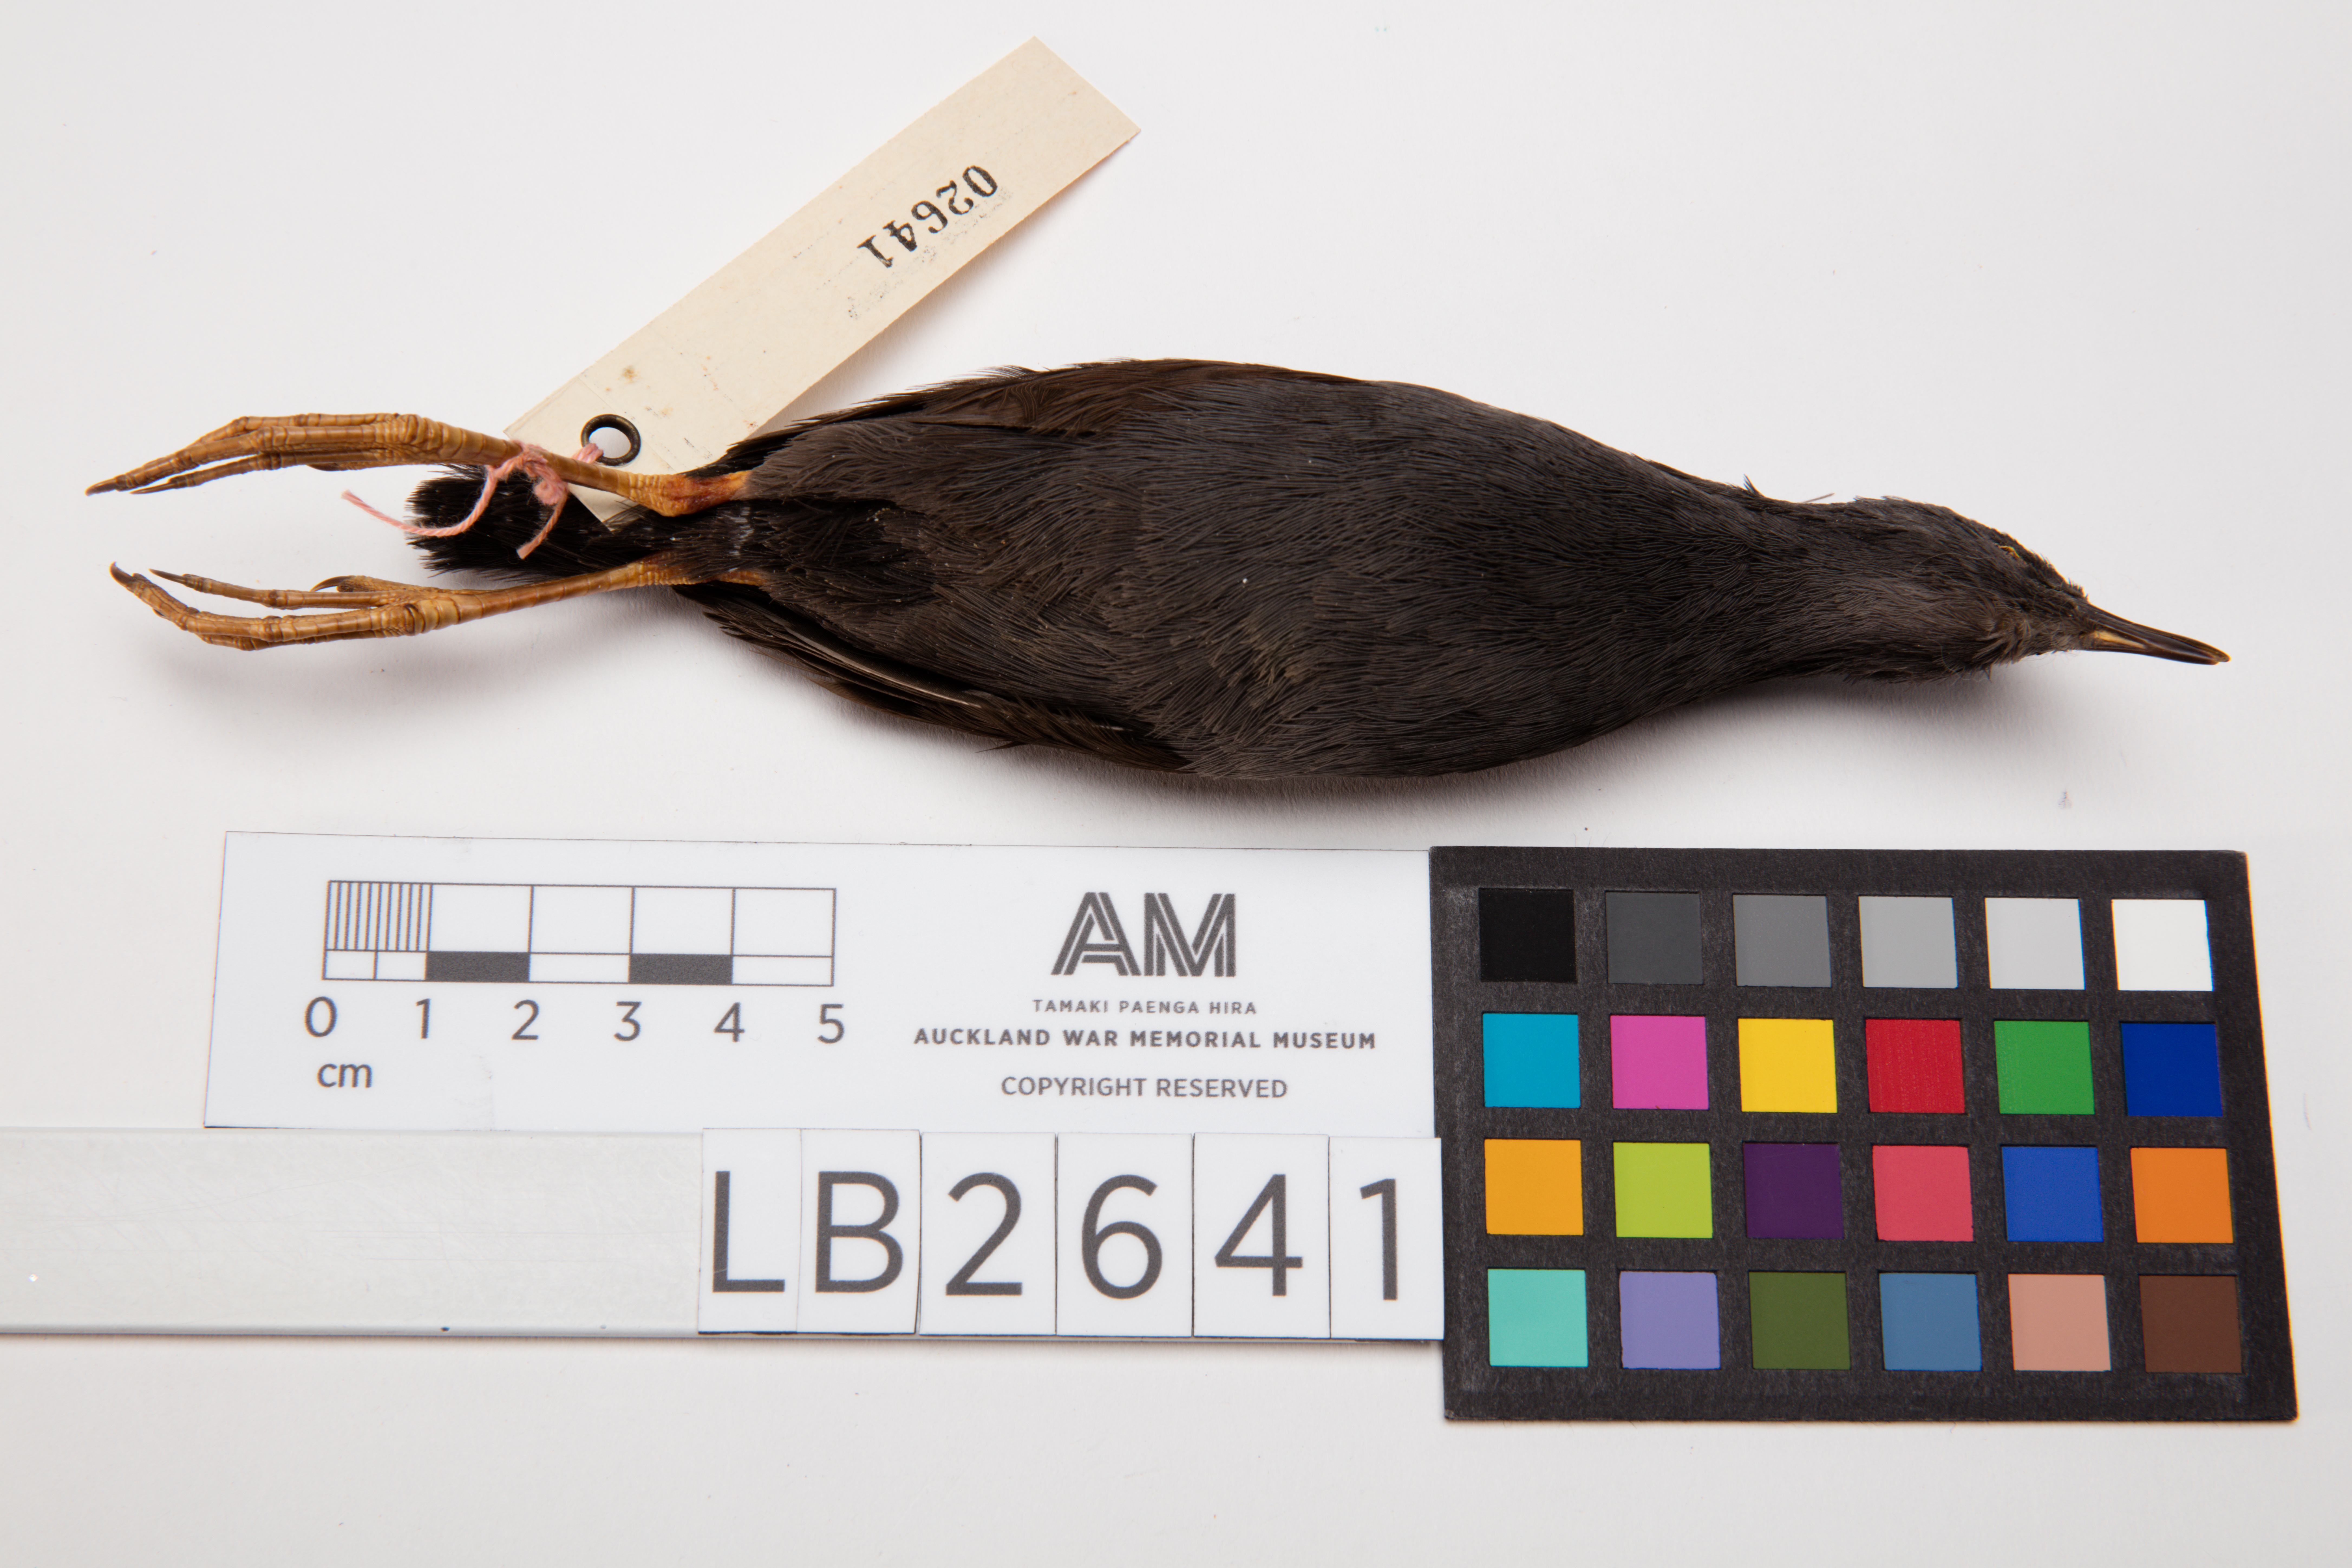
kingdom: Animalia
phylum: Chordata
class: Aves
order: Gruiformes
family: Rallidae
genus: Porzana
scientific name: Porzana tabuensis
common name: Spotless crake
